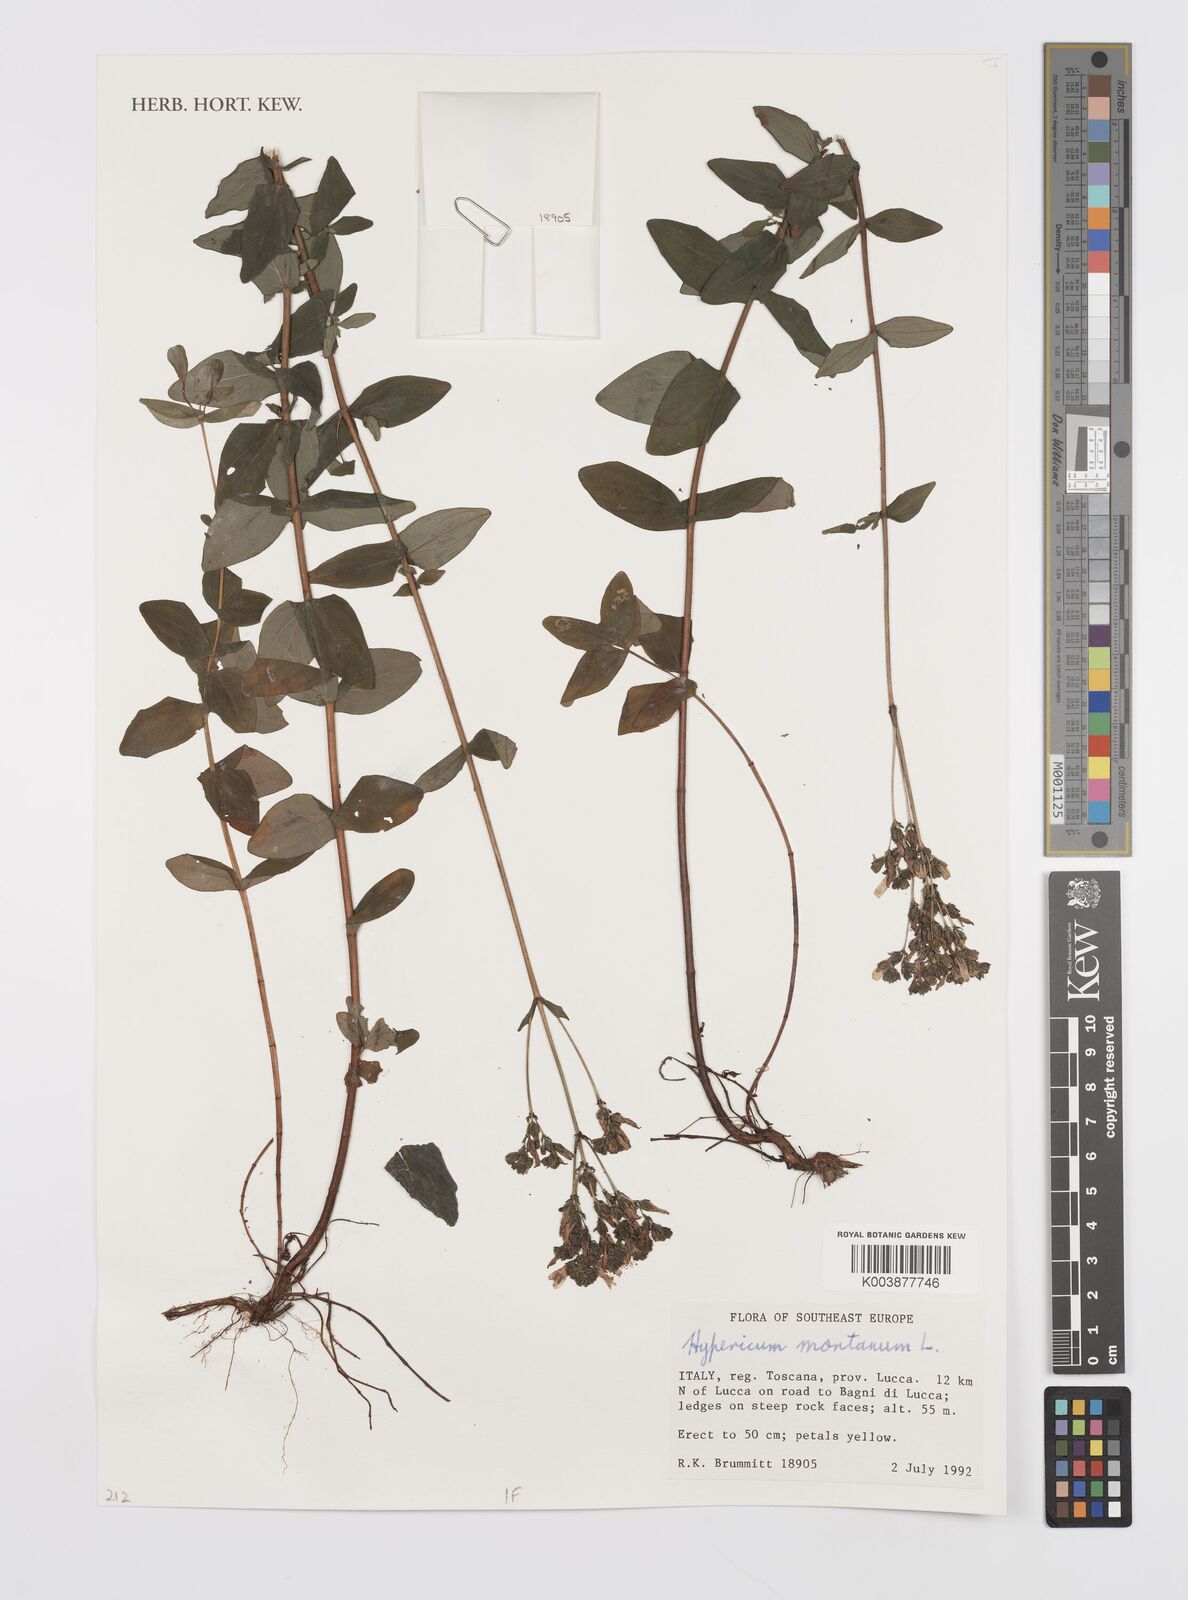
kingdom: Plantae
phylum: Tracheophyta
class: Magnoliopsida
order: Malpighiales
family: Hypericaceae
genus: Hypericum
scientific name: Hypericum montanum
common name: Pale st. john's-wort
